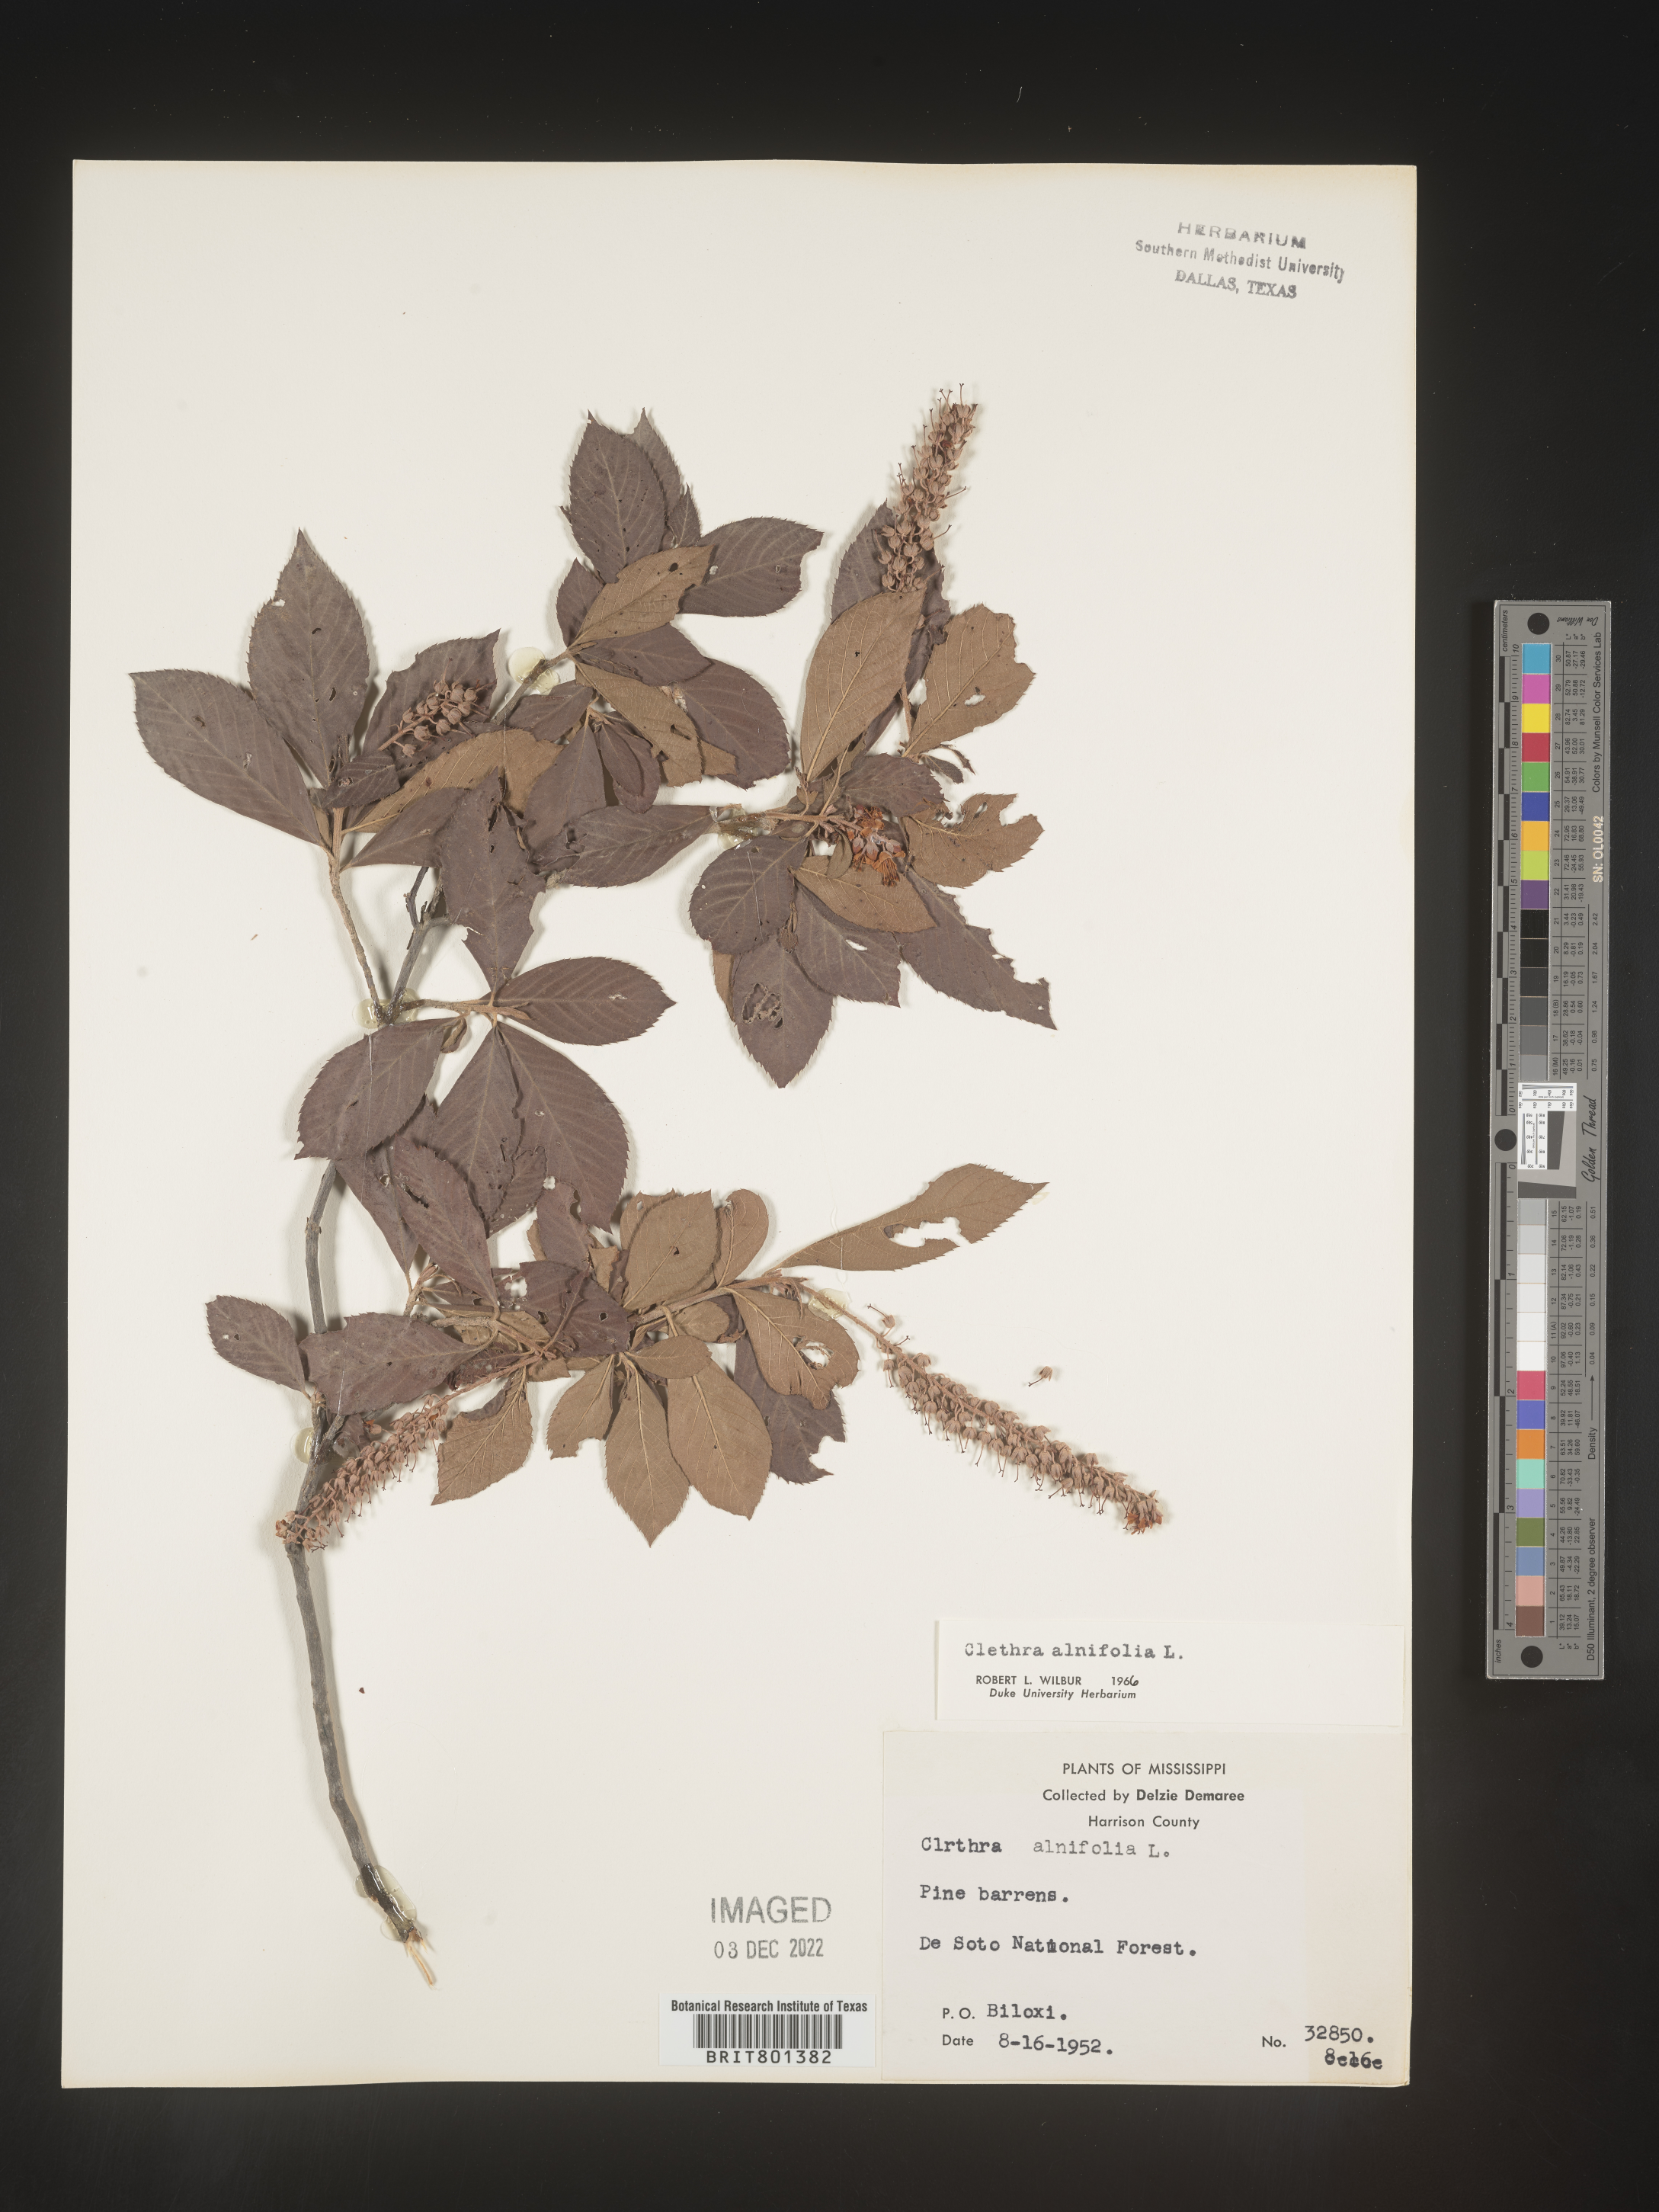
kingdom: Plantae
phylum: Tracheophyta
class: Magnoliopsida
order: Ericales
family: Clethraceae
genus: Clethra
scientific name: Clethra alnifolia
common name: Sweet pepperbush
